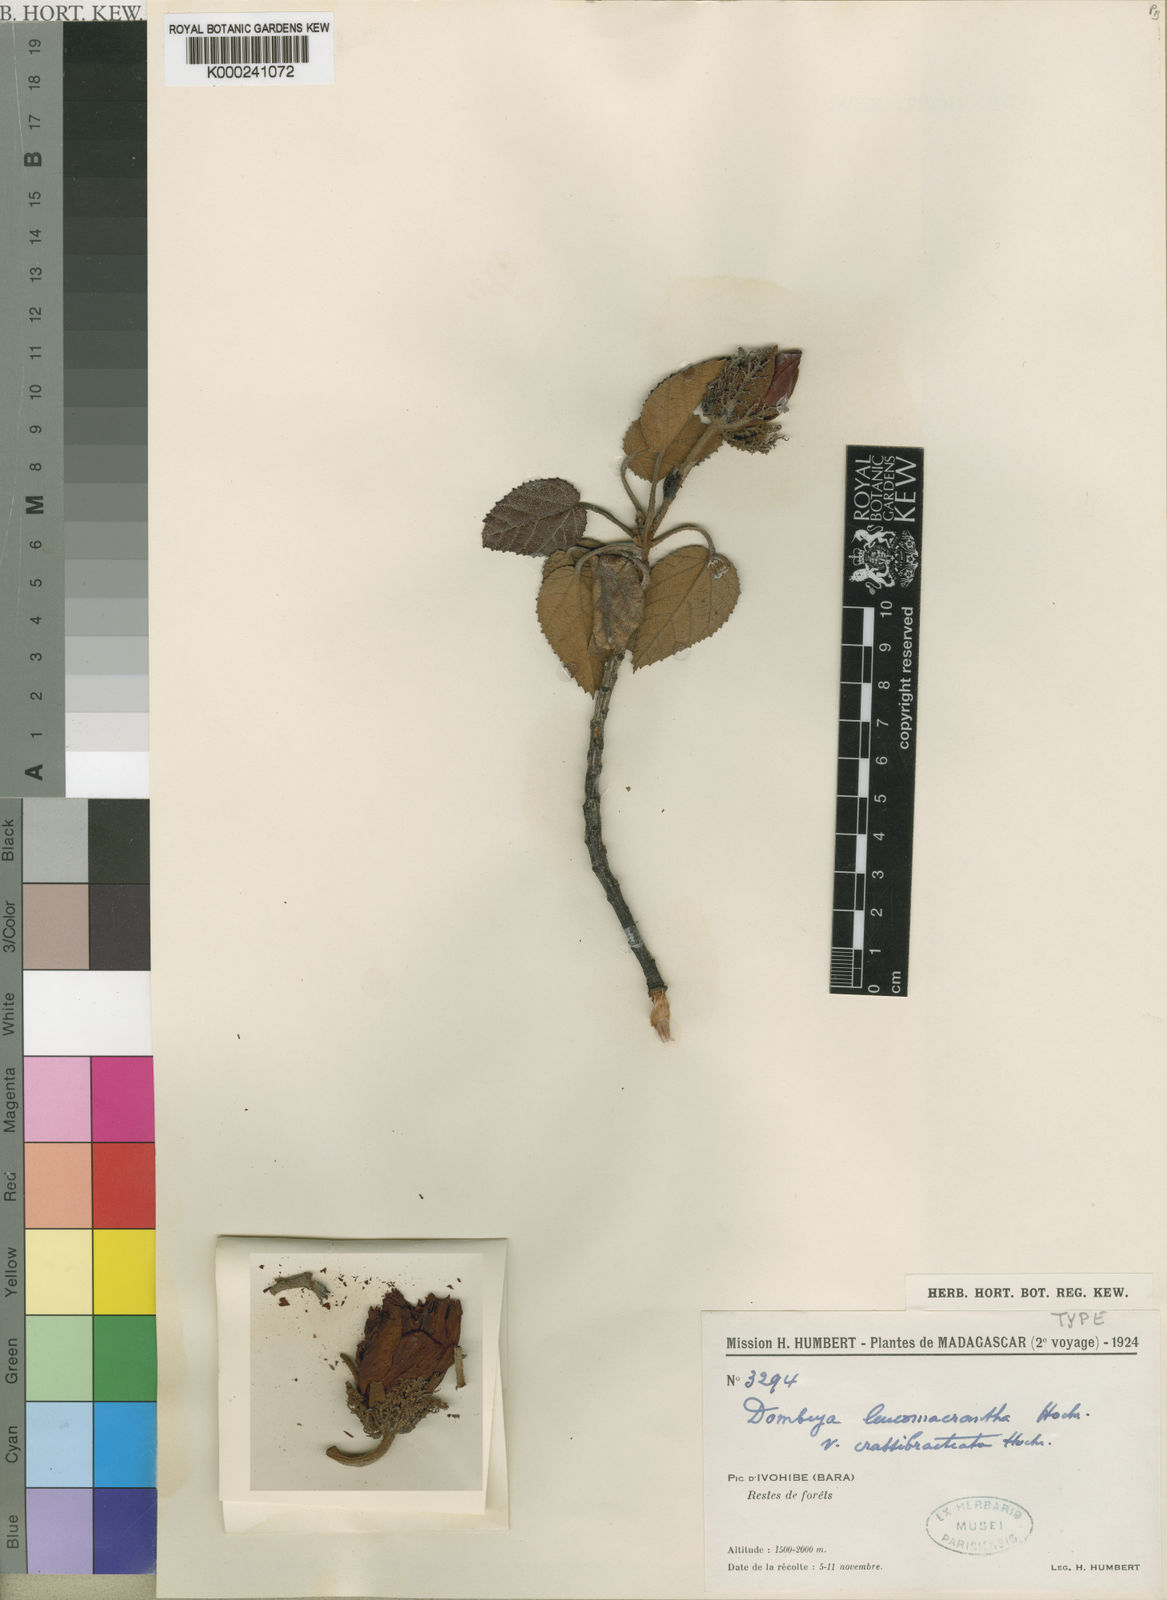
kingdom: Plantae
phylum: Tracheophyta
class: Magnoliopsida
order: Malvales
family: Malvaceae
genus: Andringitra
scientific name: Andringitra leucomacrantha
